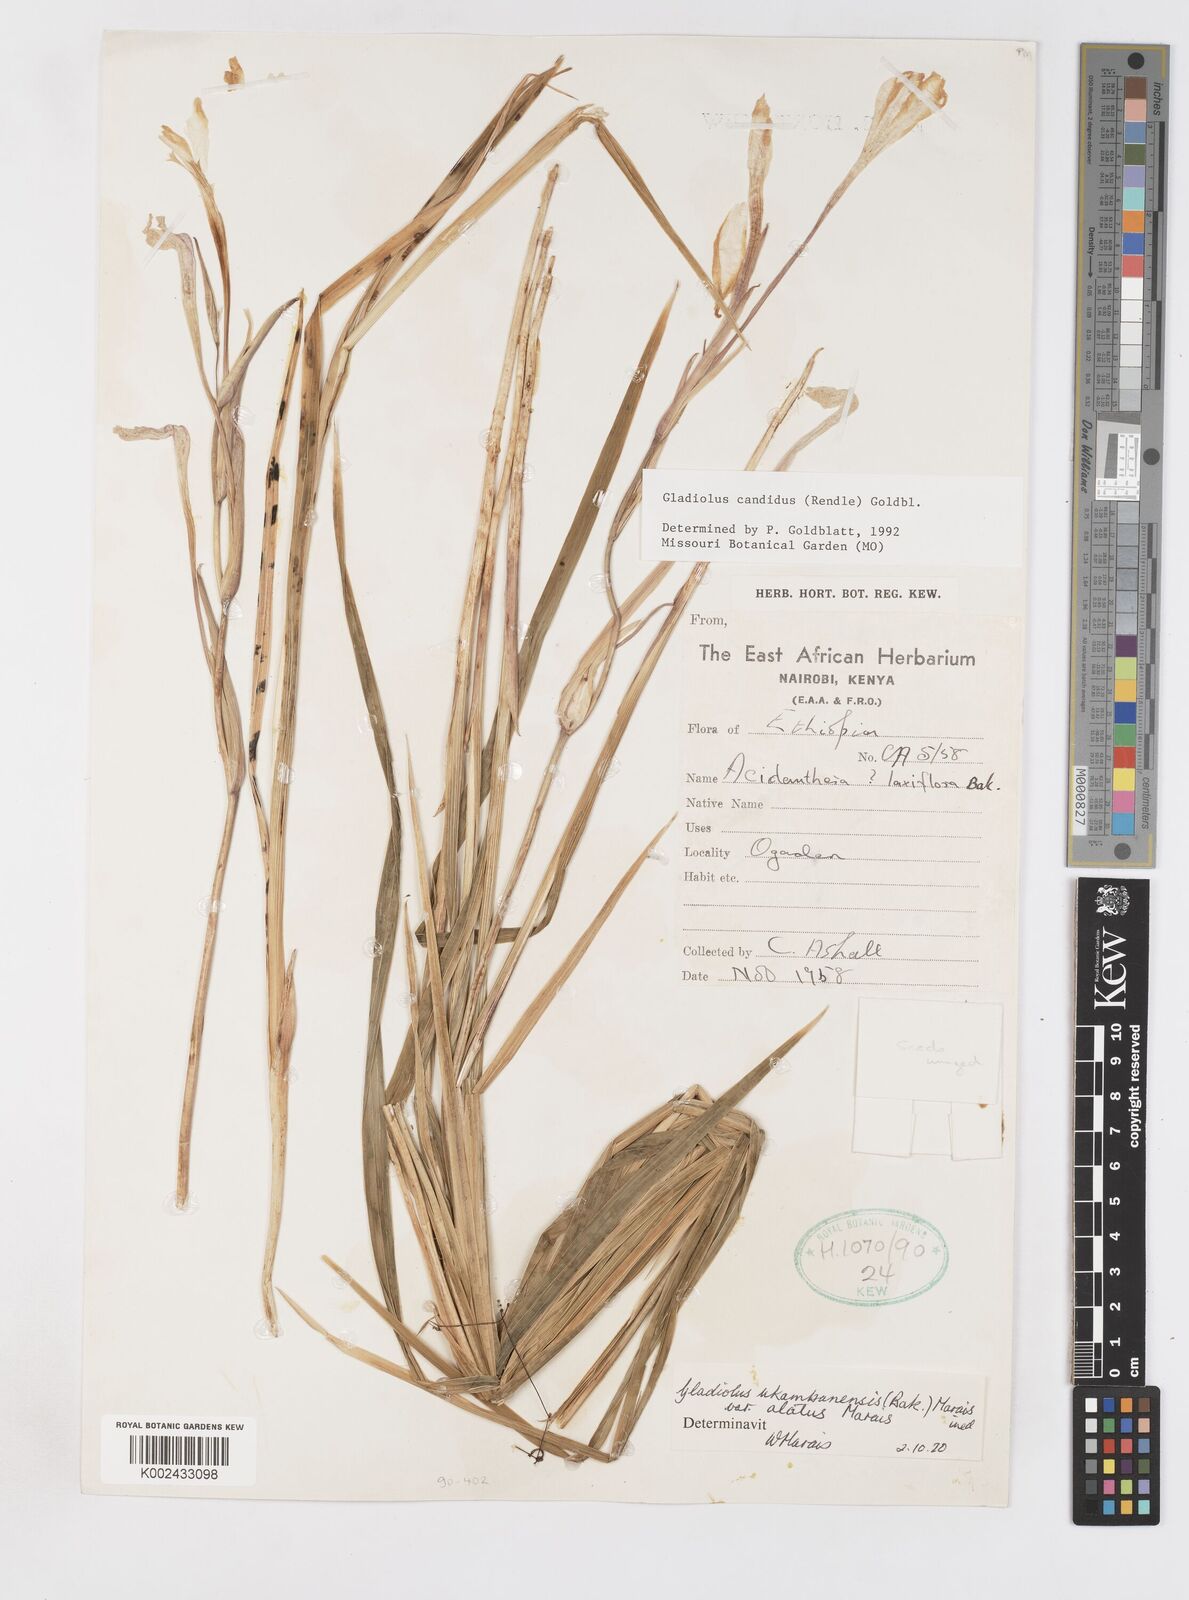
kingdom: Plantae
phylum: Tracheophyta
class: Liliopsida
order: Asparagales
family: Iridaceae
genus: Gladiolus
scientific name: Gladiolus candidus
